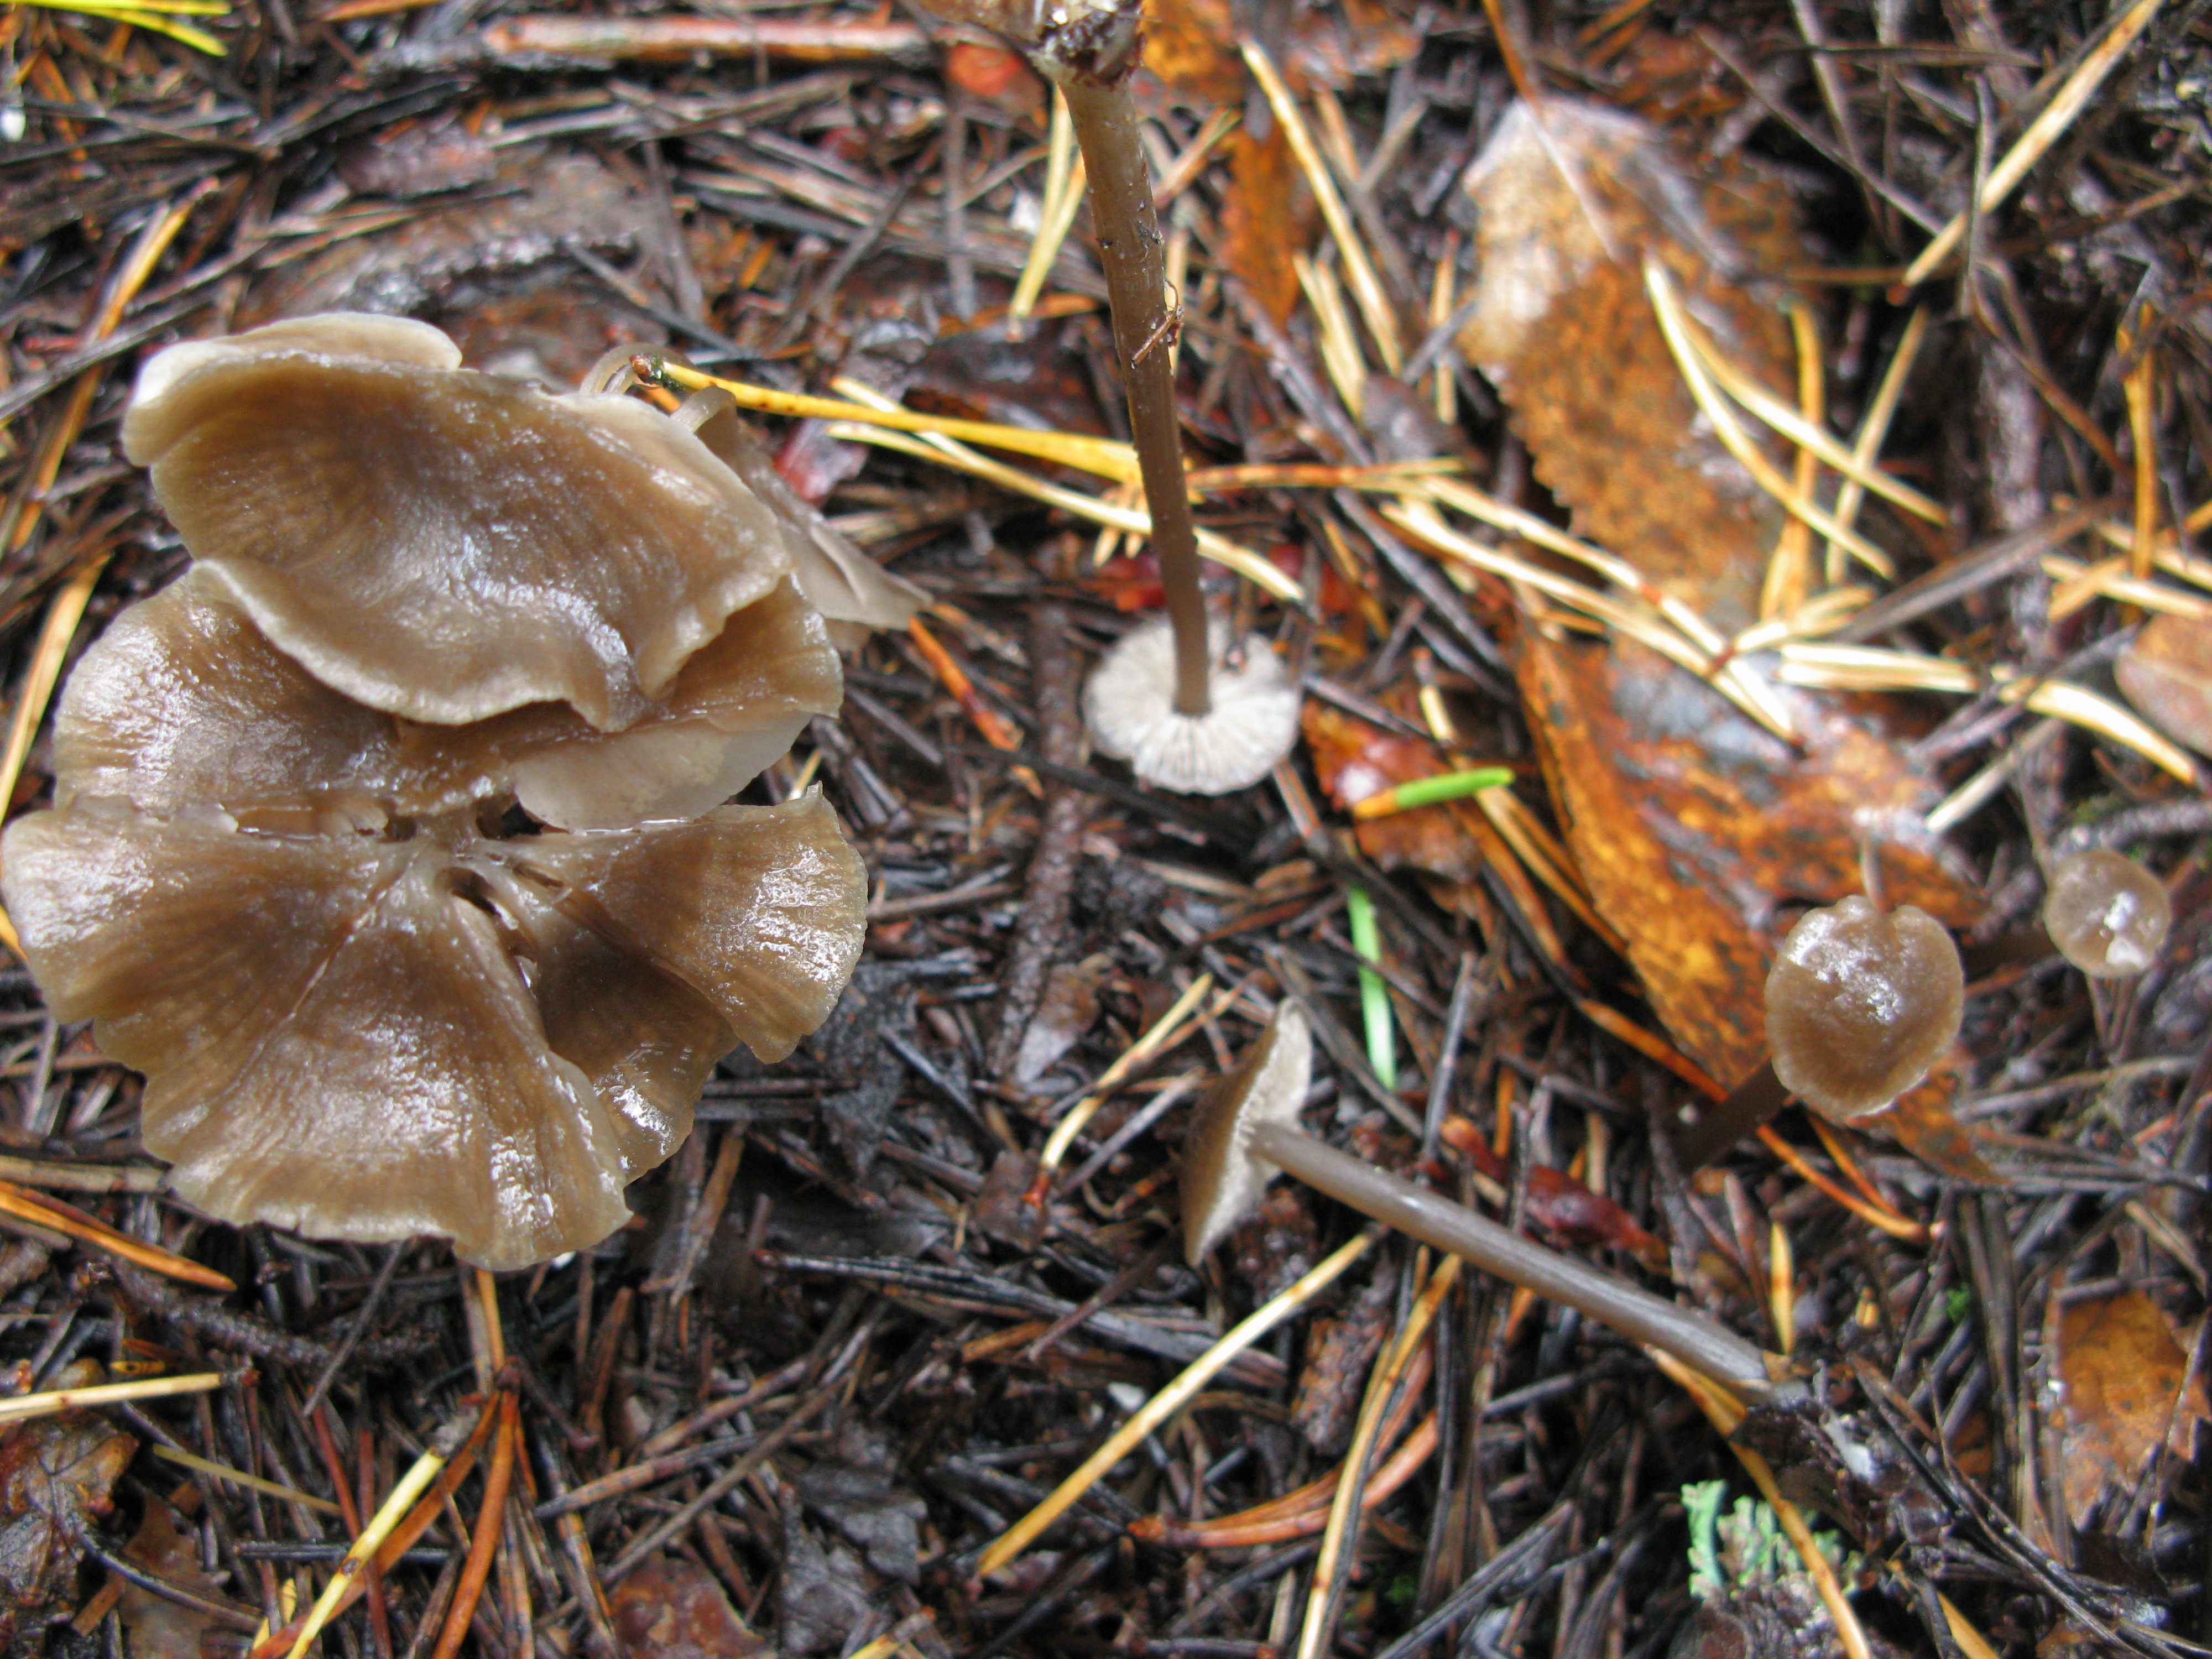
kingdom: Fungi
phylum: Basidiomycota
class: Agaricomycetes
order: Agaricales
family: Entolomataceae
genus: Entoloma
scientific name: Entoloma minutum
